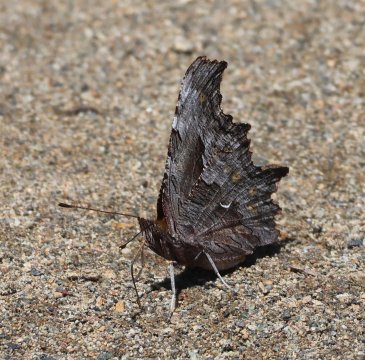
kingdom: Animalia
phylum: Arthropoda
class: Insecta
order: Lepidoptera
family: Nymphalidae
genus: Polygonia
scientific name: Polygonia gracilis
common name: Hoary Comma
